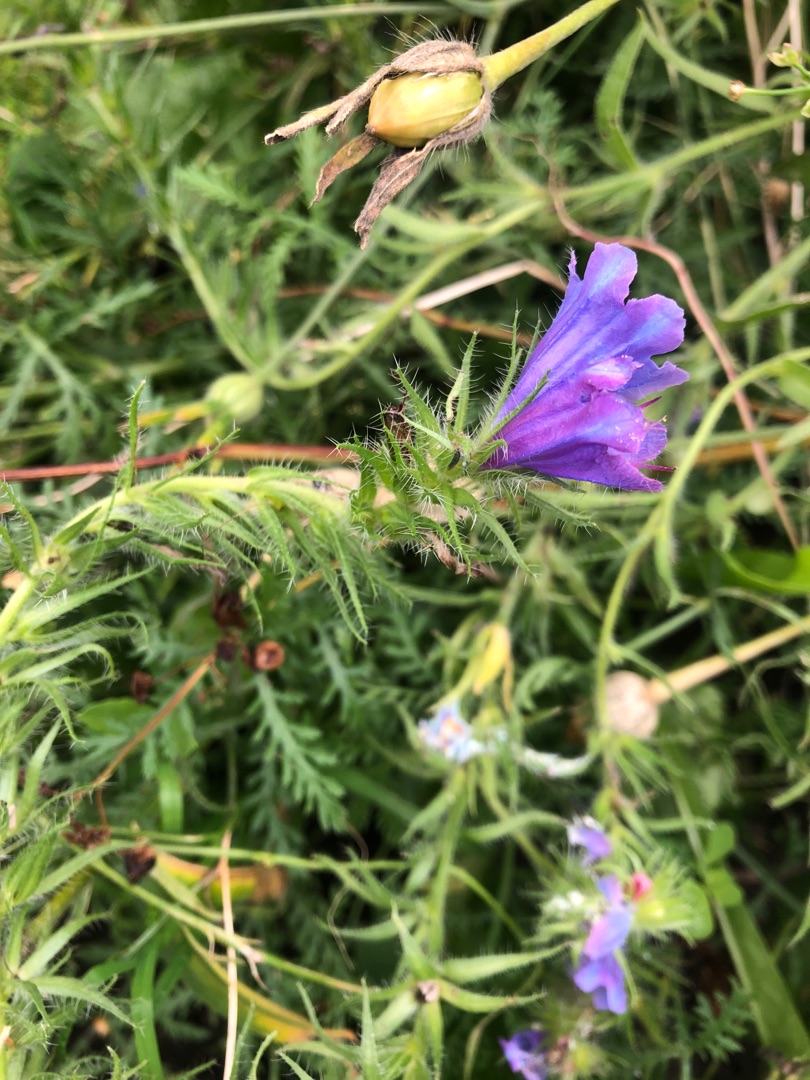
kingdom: Plantae
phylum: Tracheophyta
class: Magnoliopsida
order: Boraginales
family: Boraginaceae
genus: Echium
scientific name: Echium plantagineum
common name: Vejbred-slangehoved
